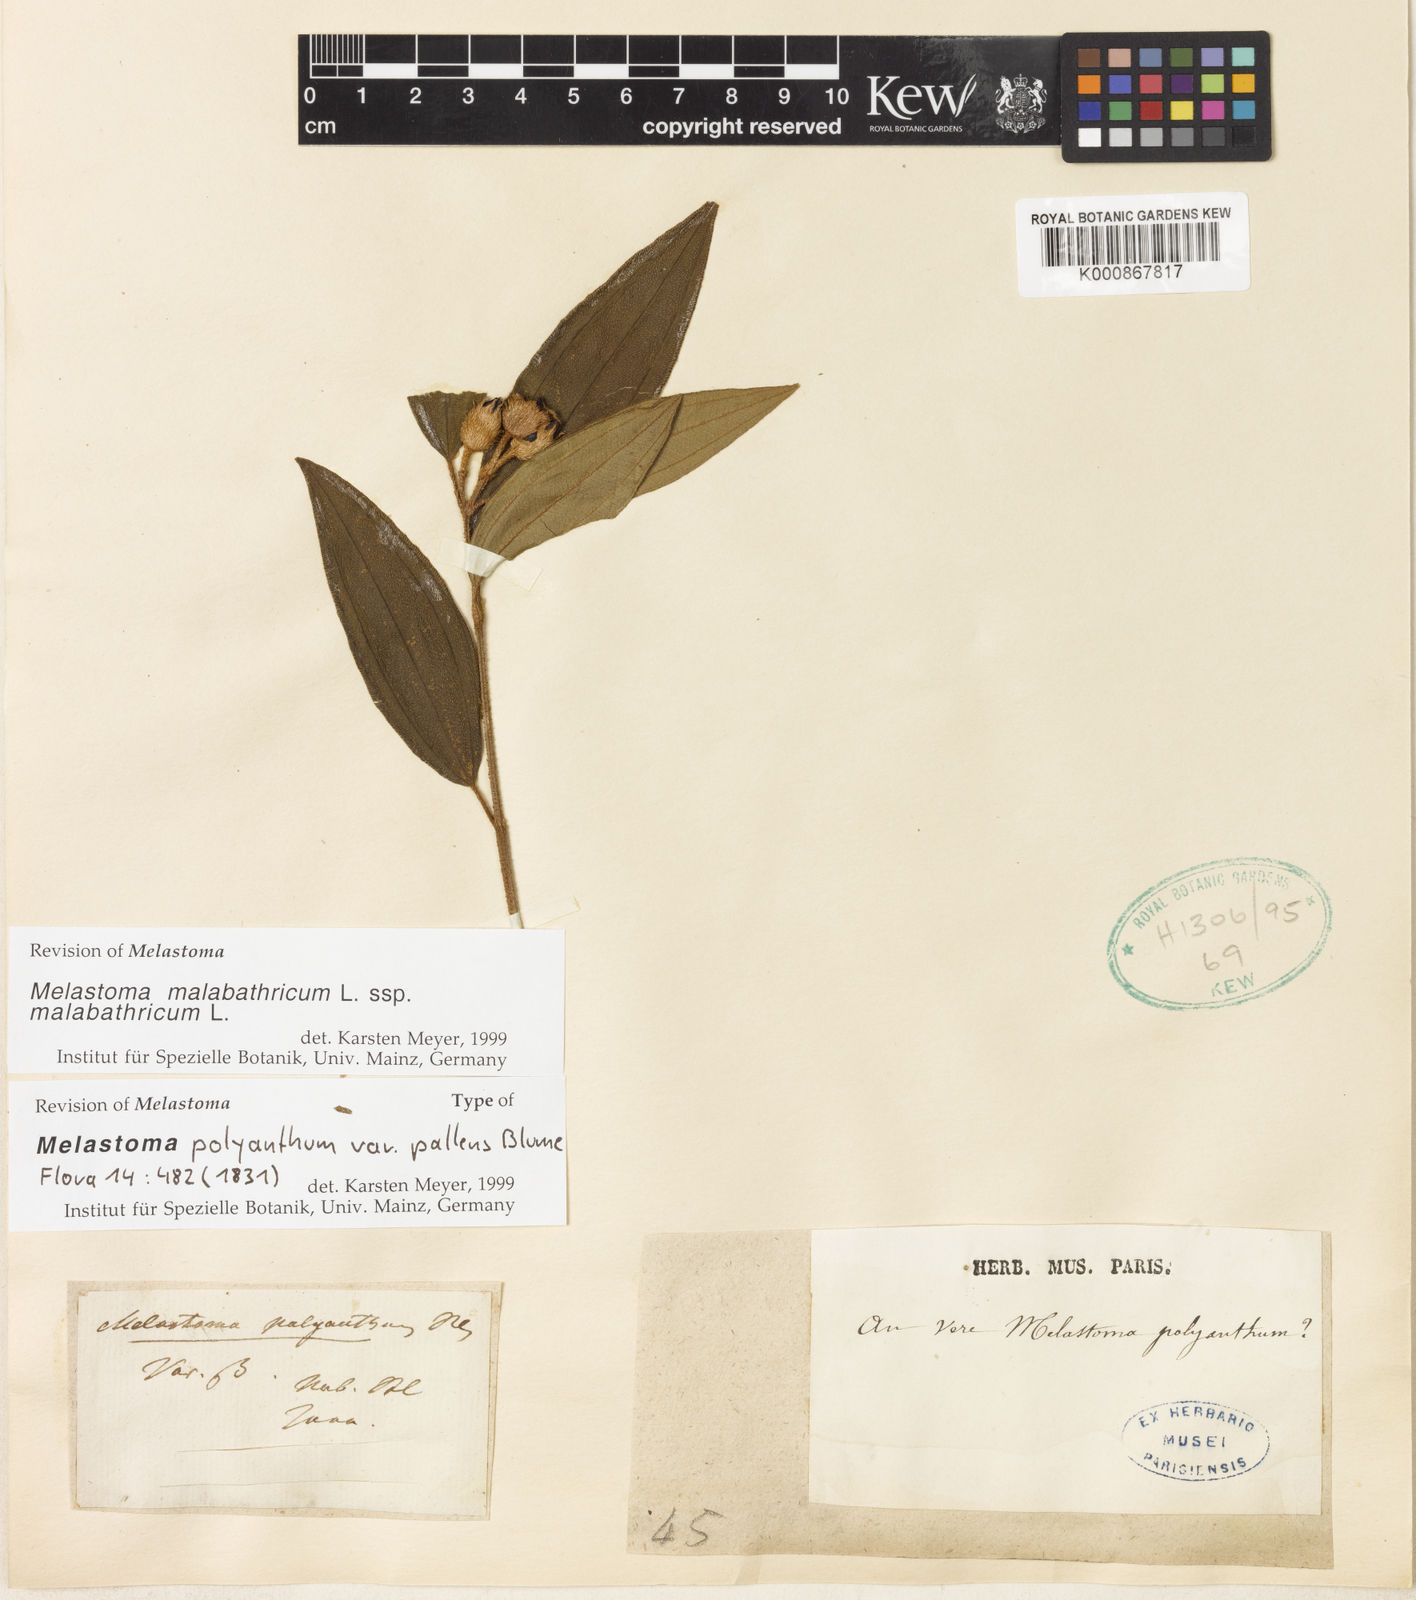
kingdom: Plantae
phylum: Tracheophyta
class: Magnoliopsida
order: Myrtales
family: Melastomataceae
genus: Melastoma
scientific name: Melastoma malabathricum
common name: Indian-rhododendron
